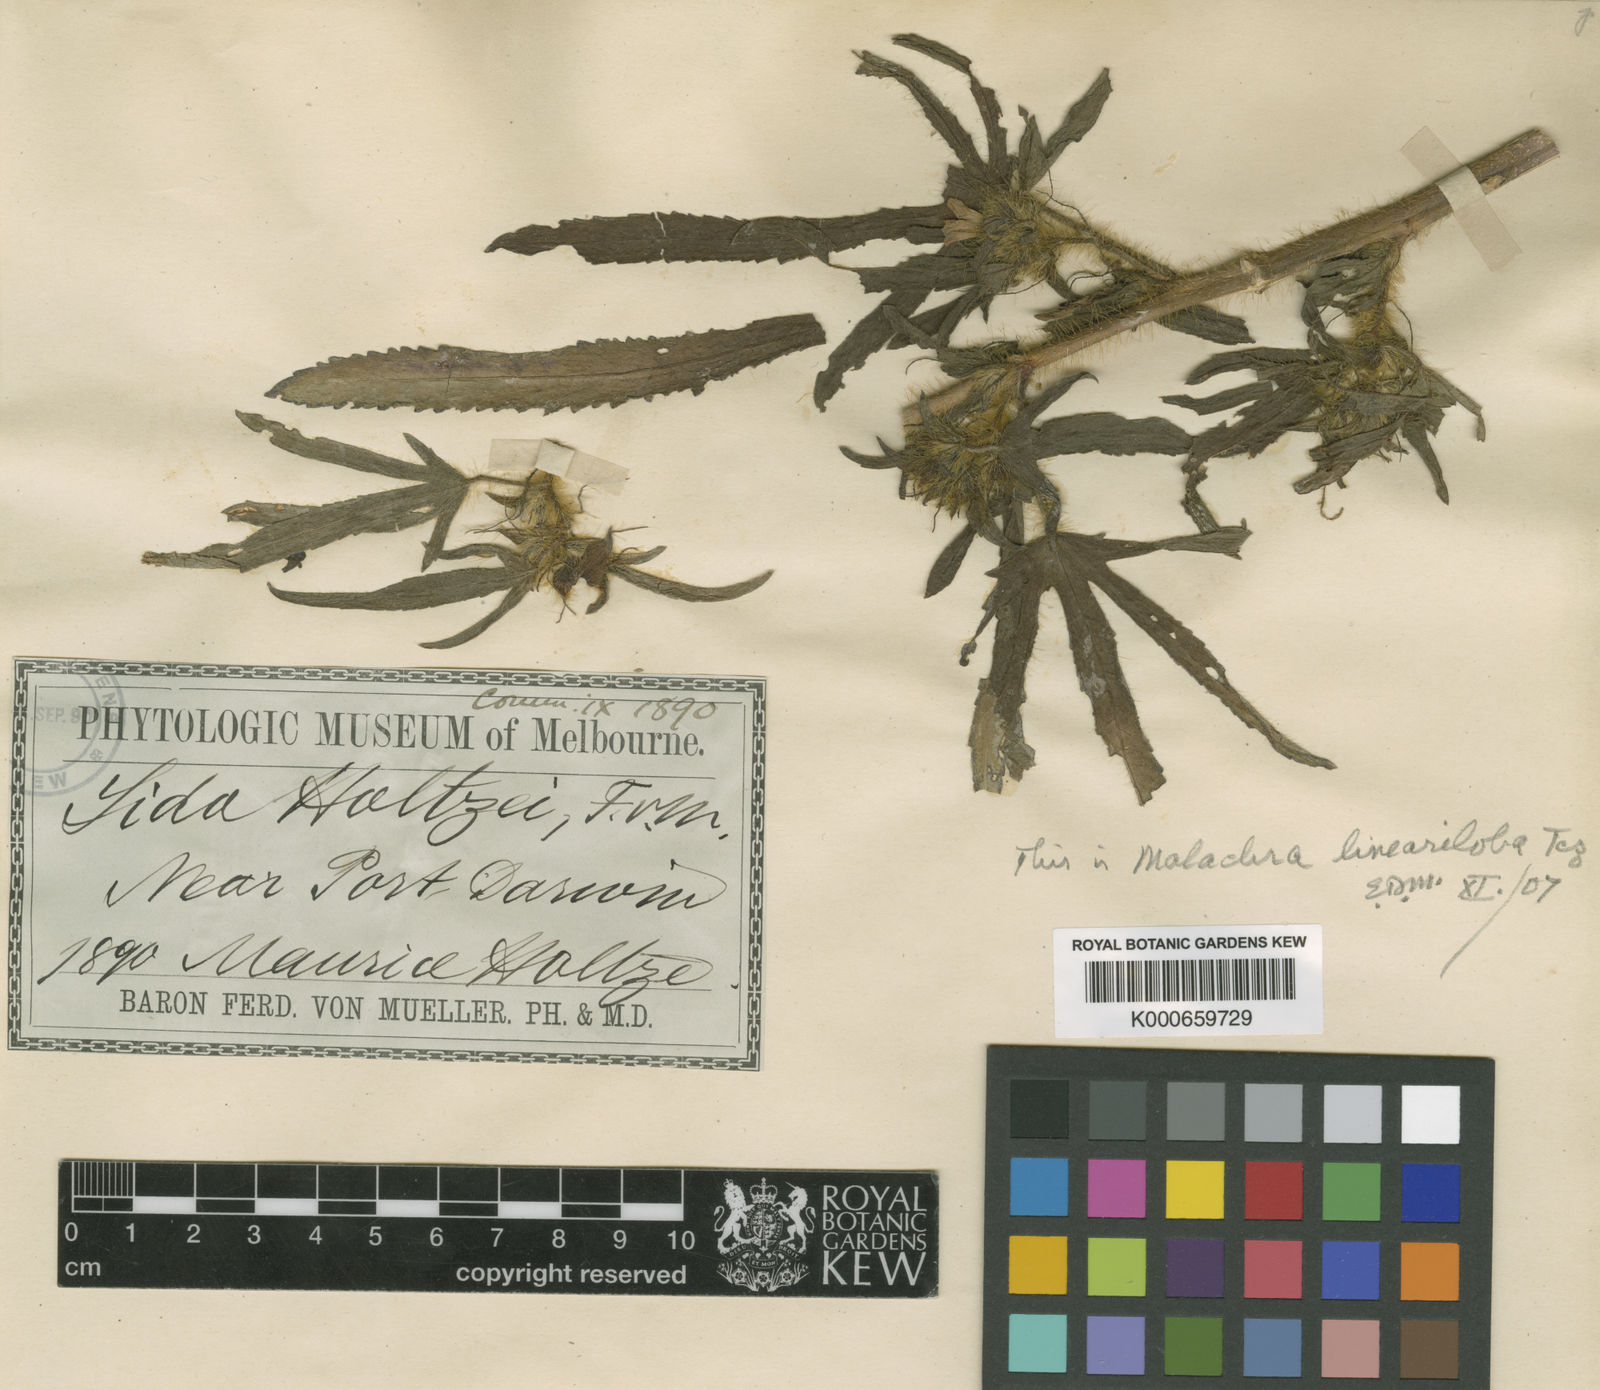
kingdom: Plantae
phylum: Tracheophyta
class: Magnoliopsida
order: Malvales
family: Malvaceae
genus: Malachra
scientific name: Malachra fasciata
